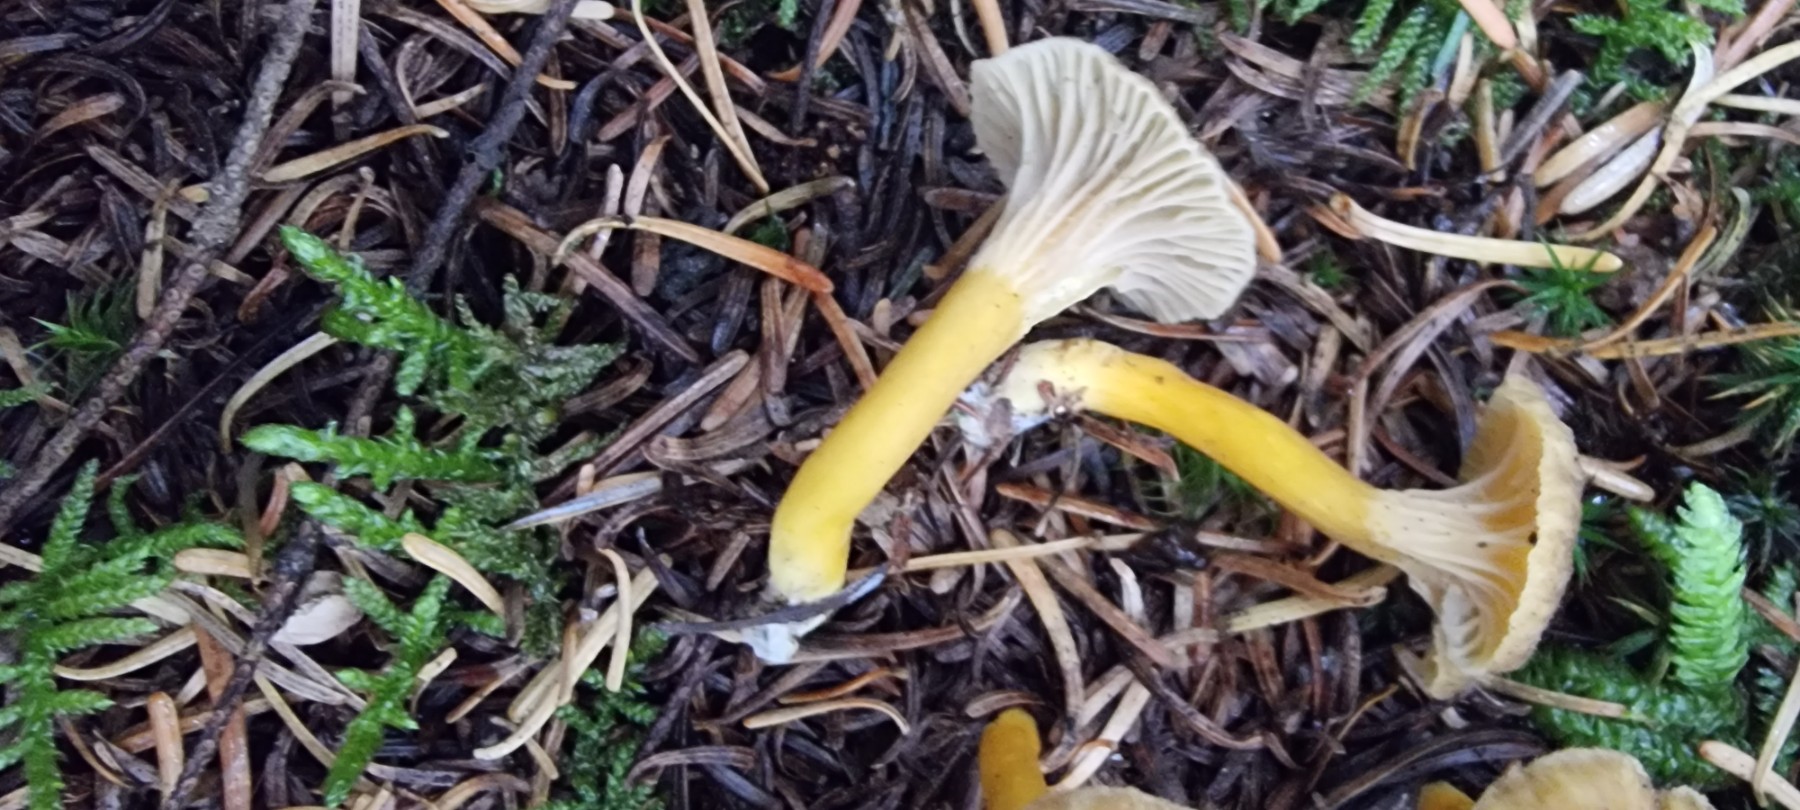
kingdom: Fungi
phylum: Basidiomycota
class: Agaricomycetes
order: Cantharellales
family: Hydnaceae
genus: Craterellus
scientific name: Craterellus tubaeformis
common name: tragt-kantarel
